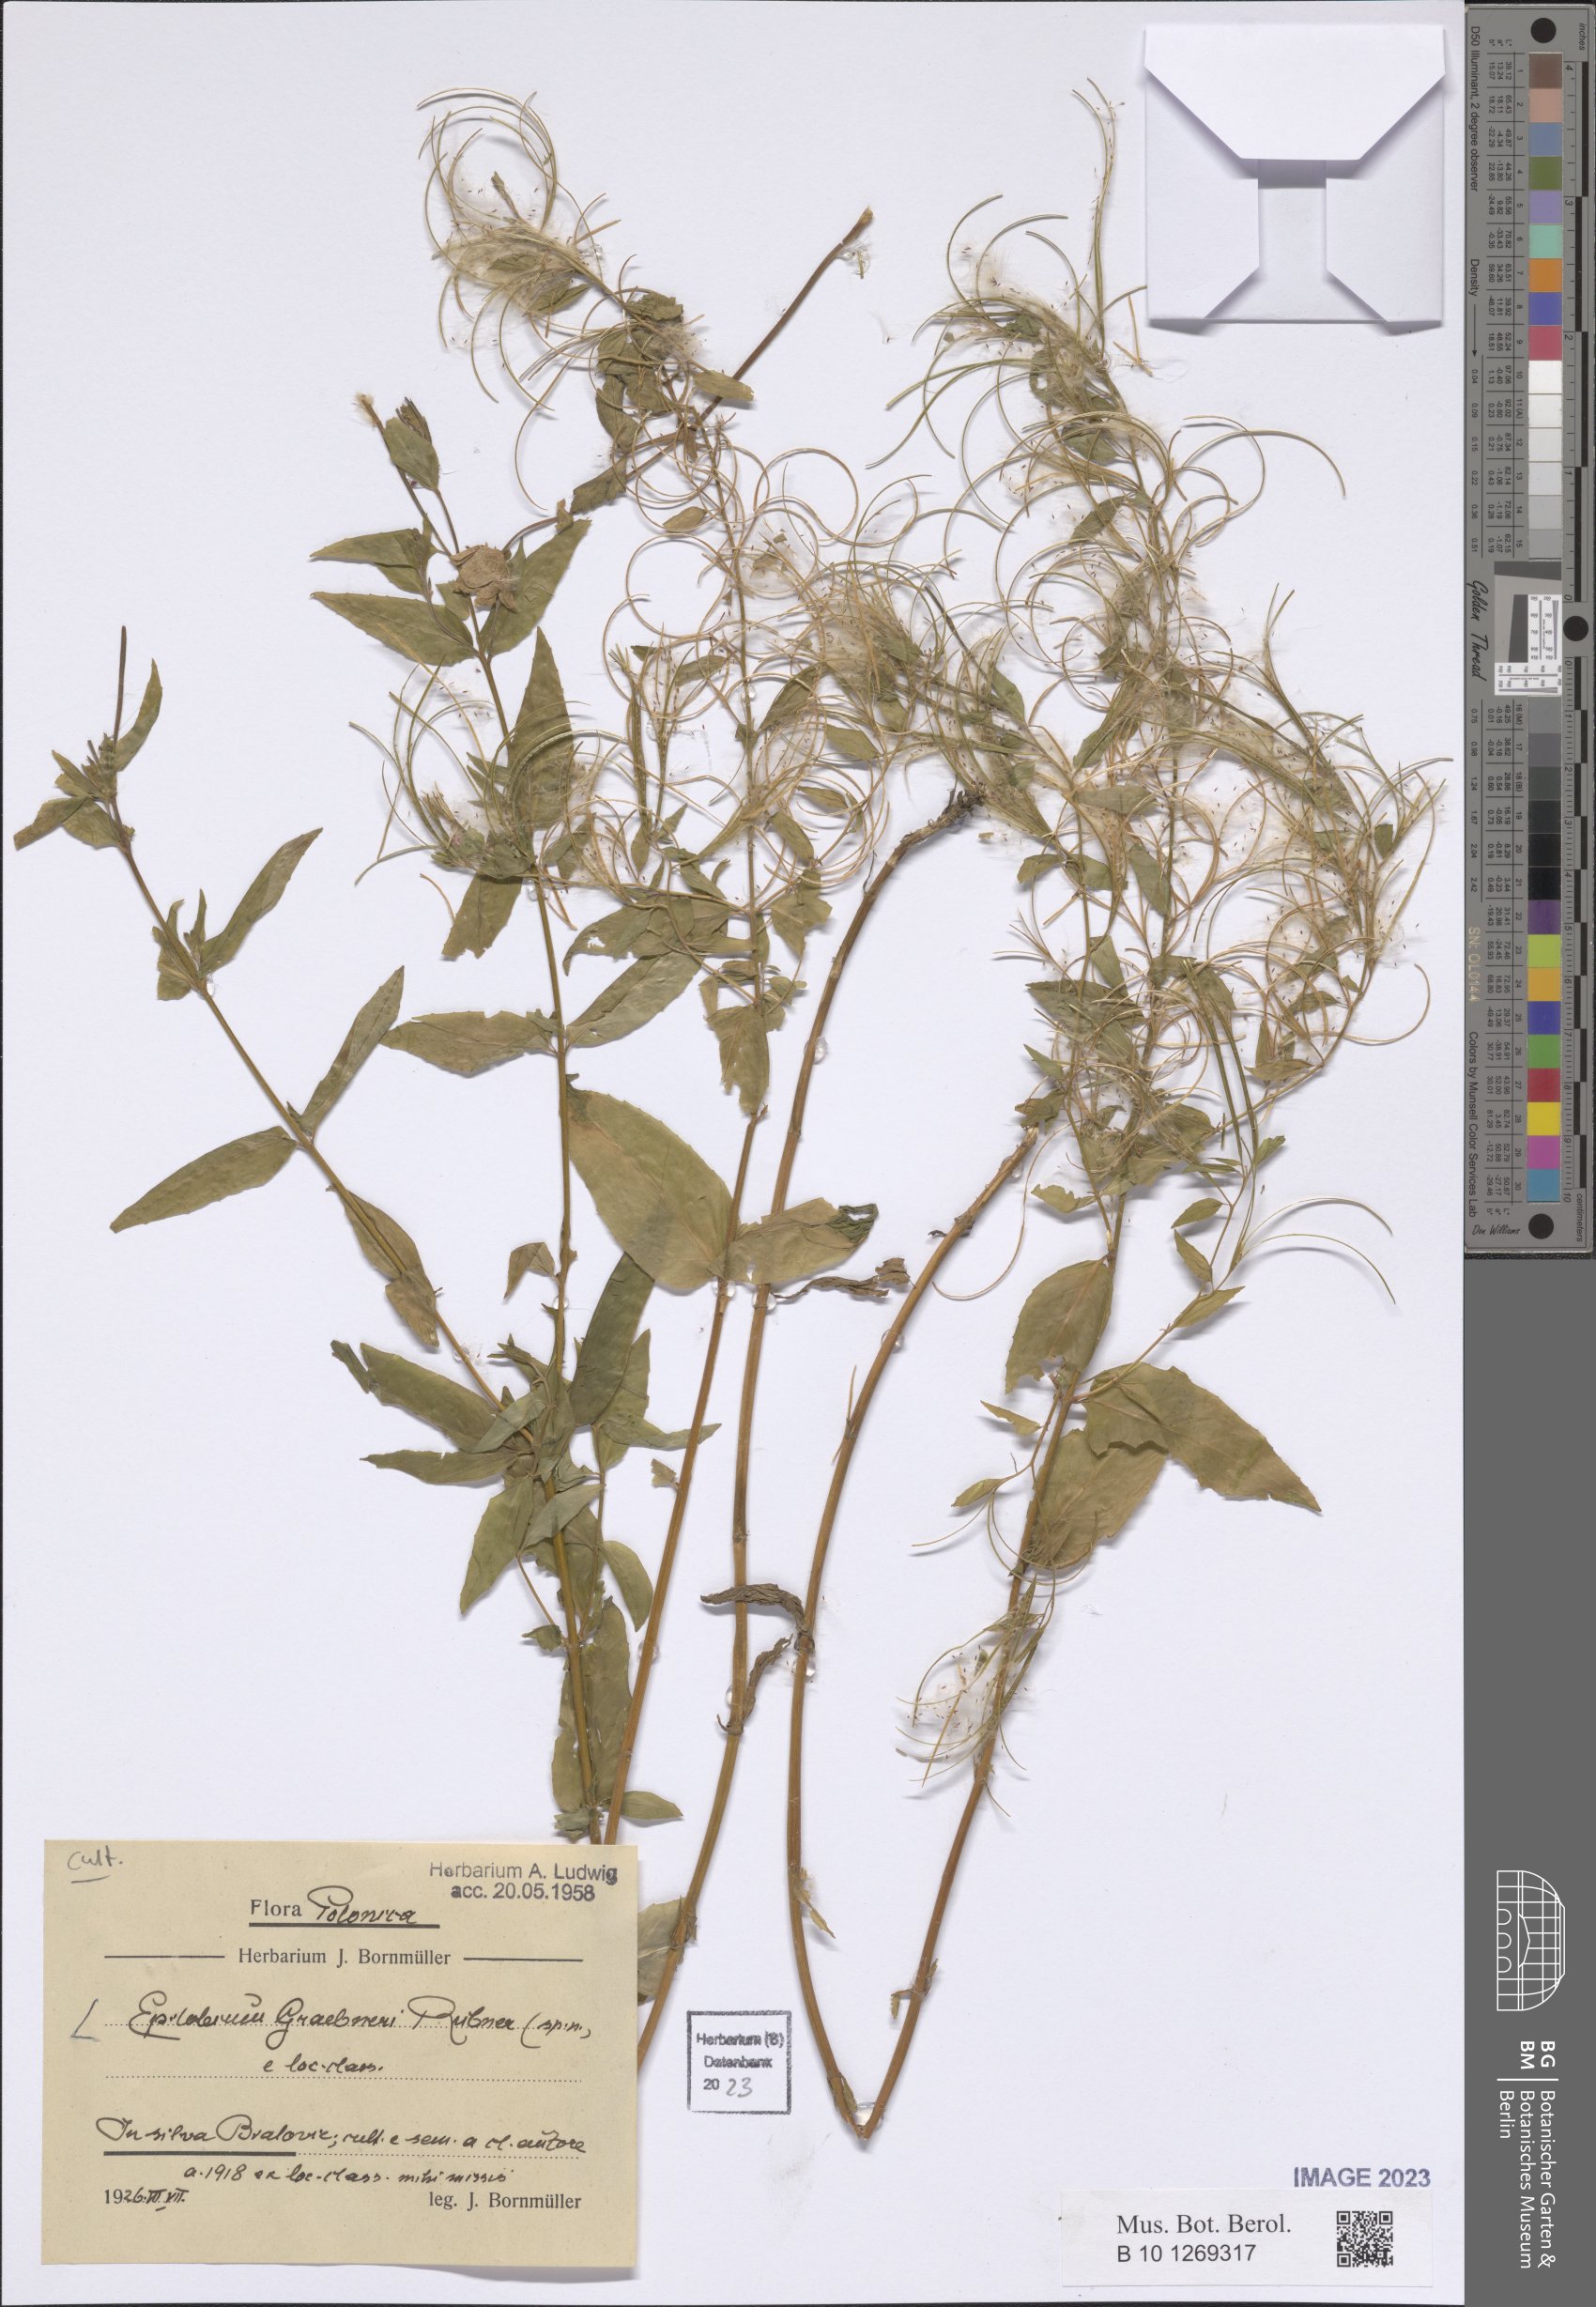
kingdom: Plantae
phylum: Tracheophyta
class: Magnoliopsida
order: Myrtales
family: Onagraceae
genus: Epilobium
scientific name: Epilobium graebneri
